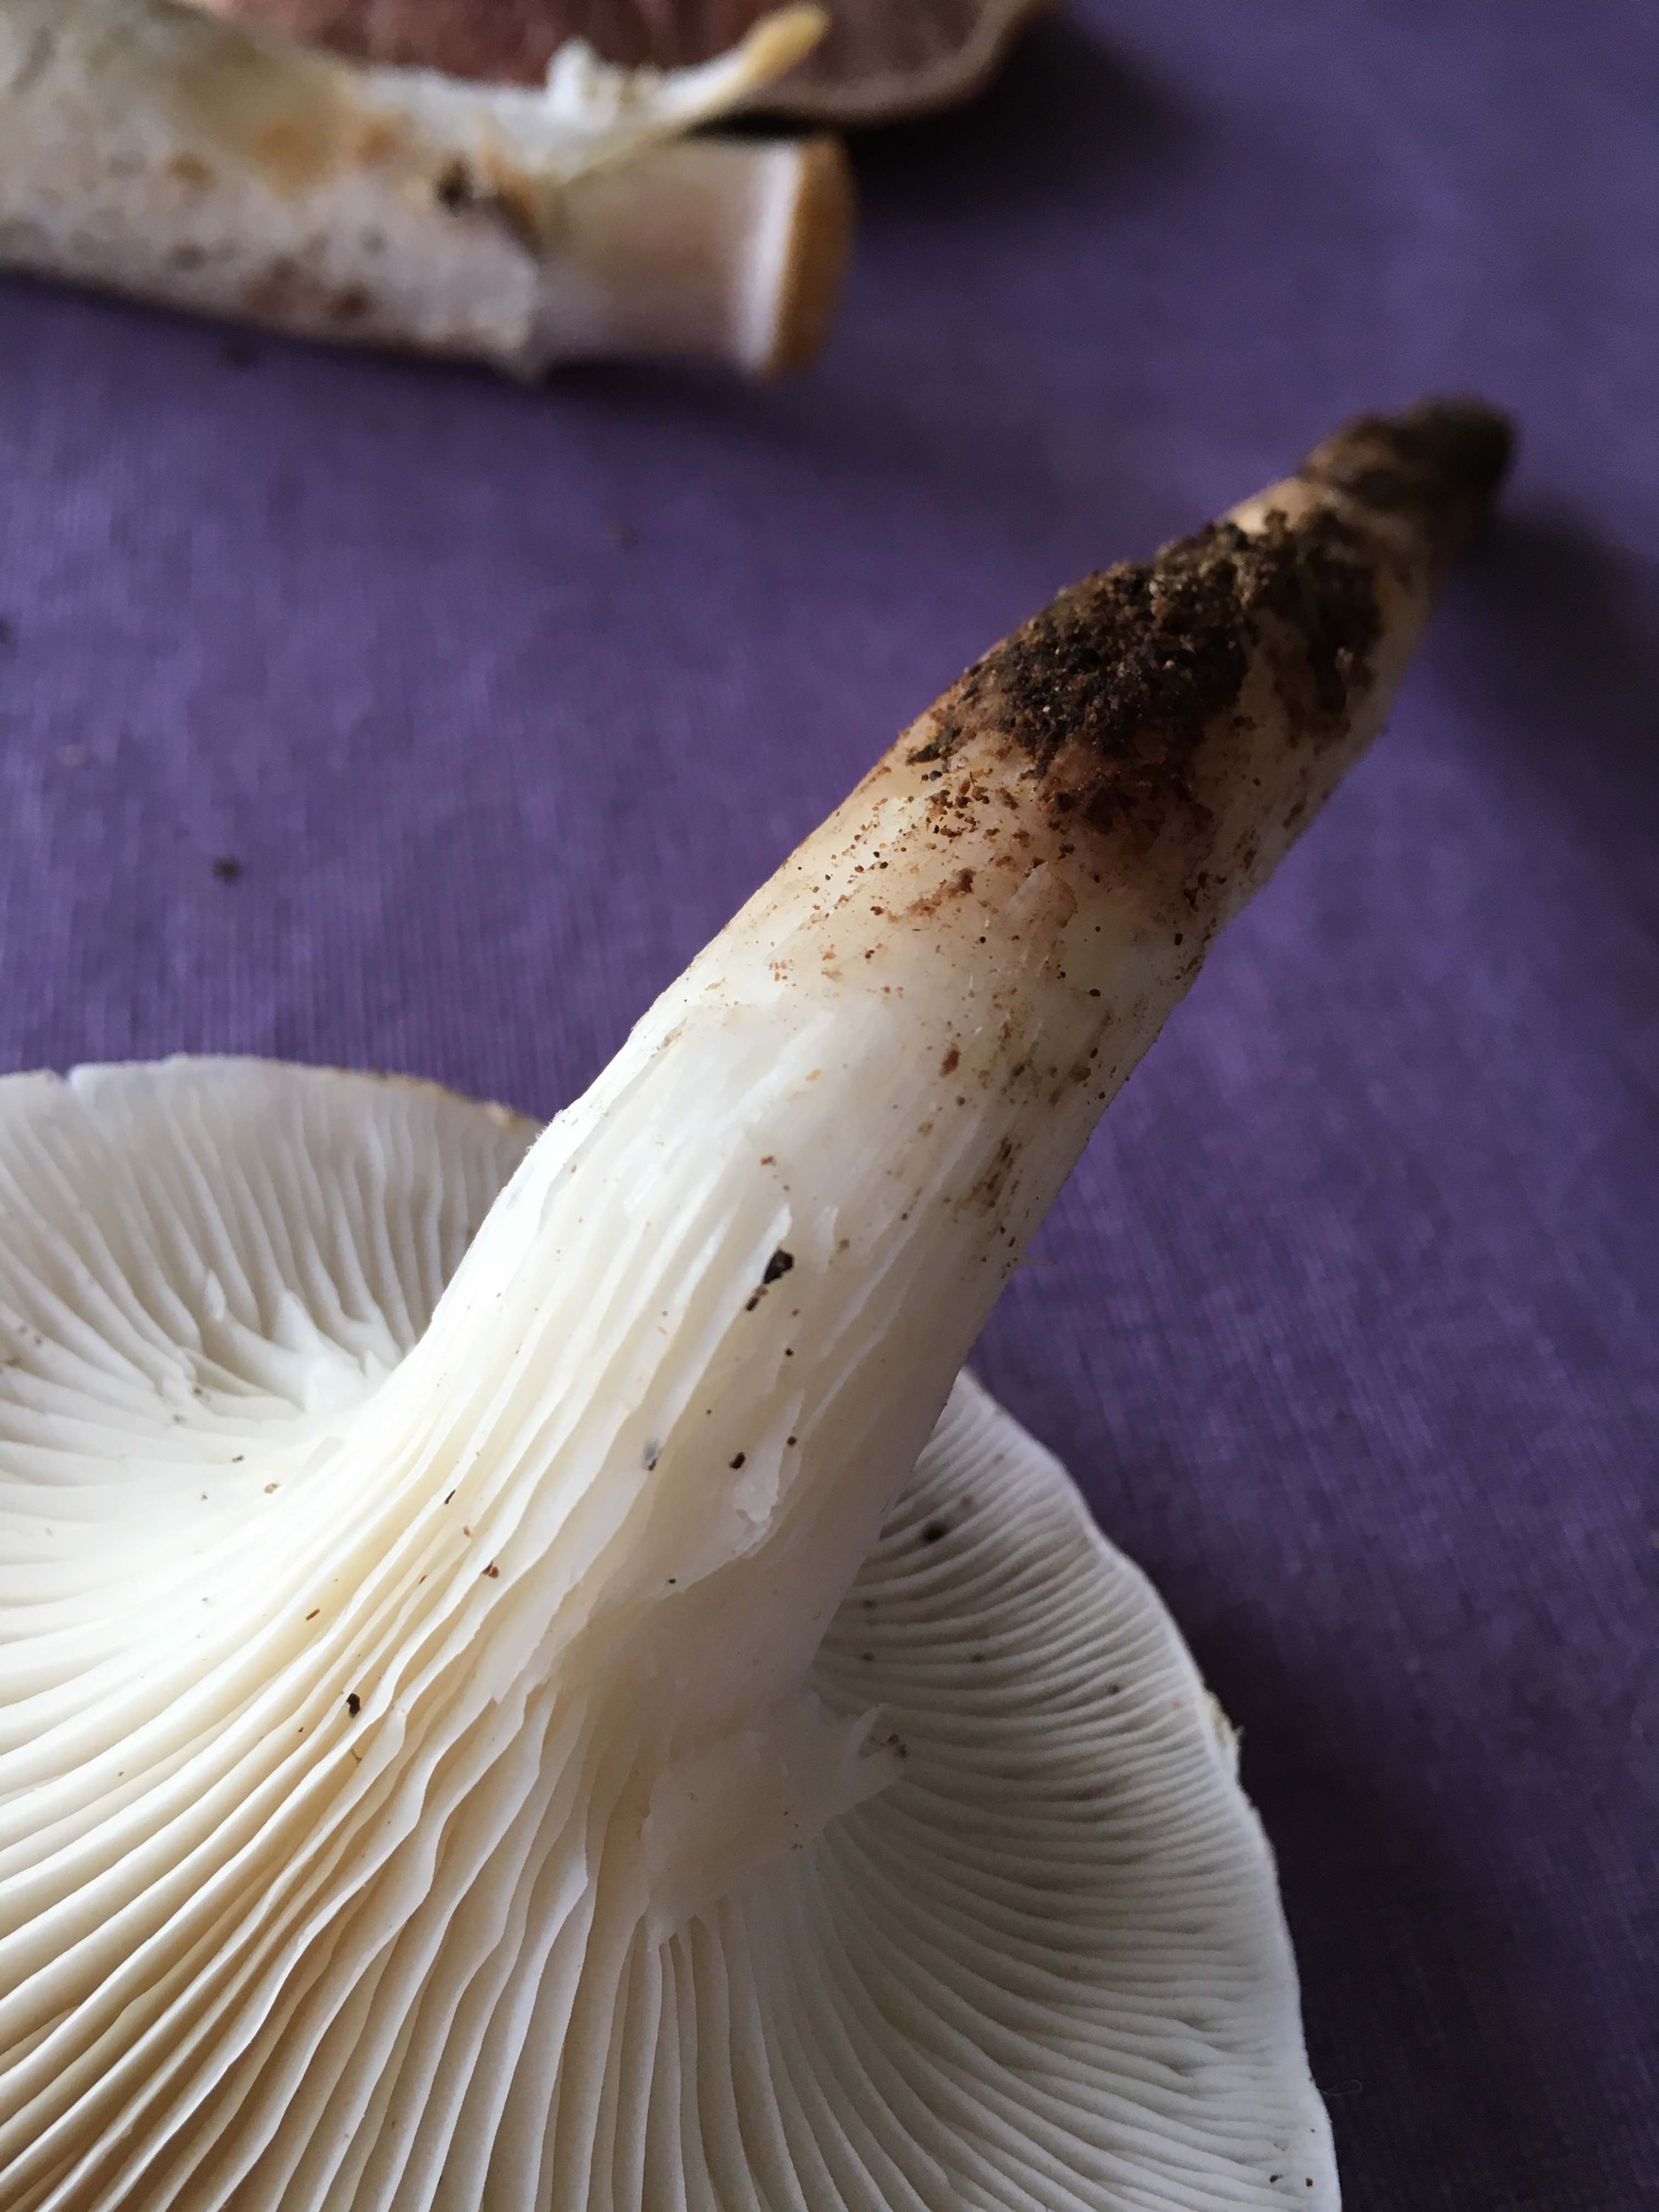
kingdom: Fungi
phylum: Basidiomycota
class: Agaricomycetes
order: Agaricales
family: Pleurotaceae
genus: Pleurotus
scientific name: Pleurotus dryinus
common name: korkagtig østershat
